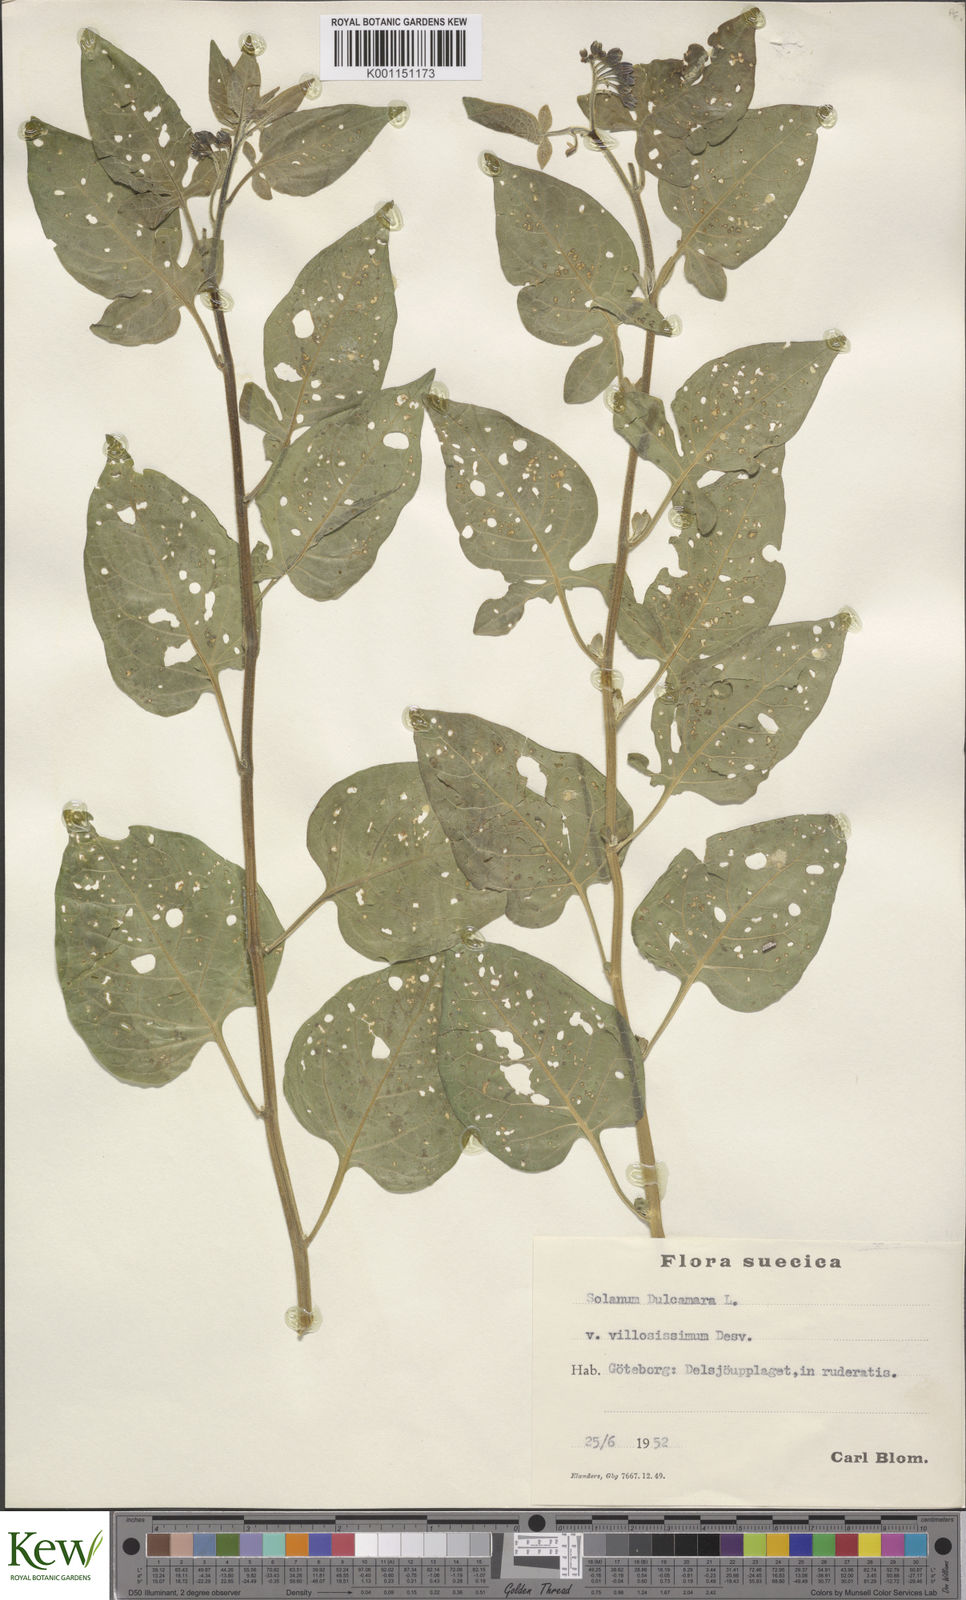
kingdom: Plantae
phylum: Tracheophyta
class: Magnoliopsida
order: Solanales
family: Solanaceae
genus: Solanum
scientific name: Solanum dulcamara
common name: Climbing nightshade
